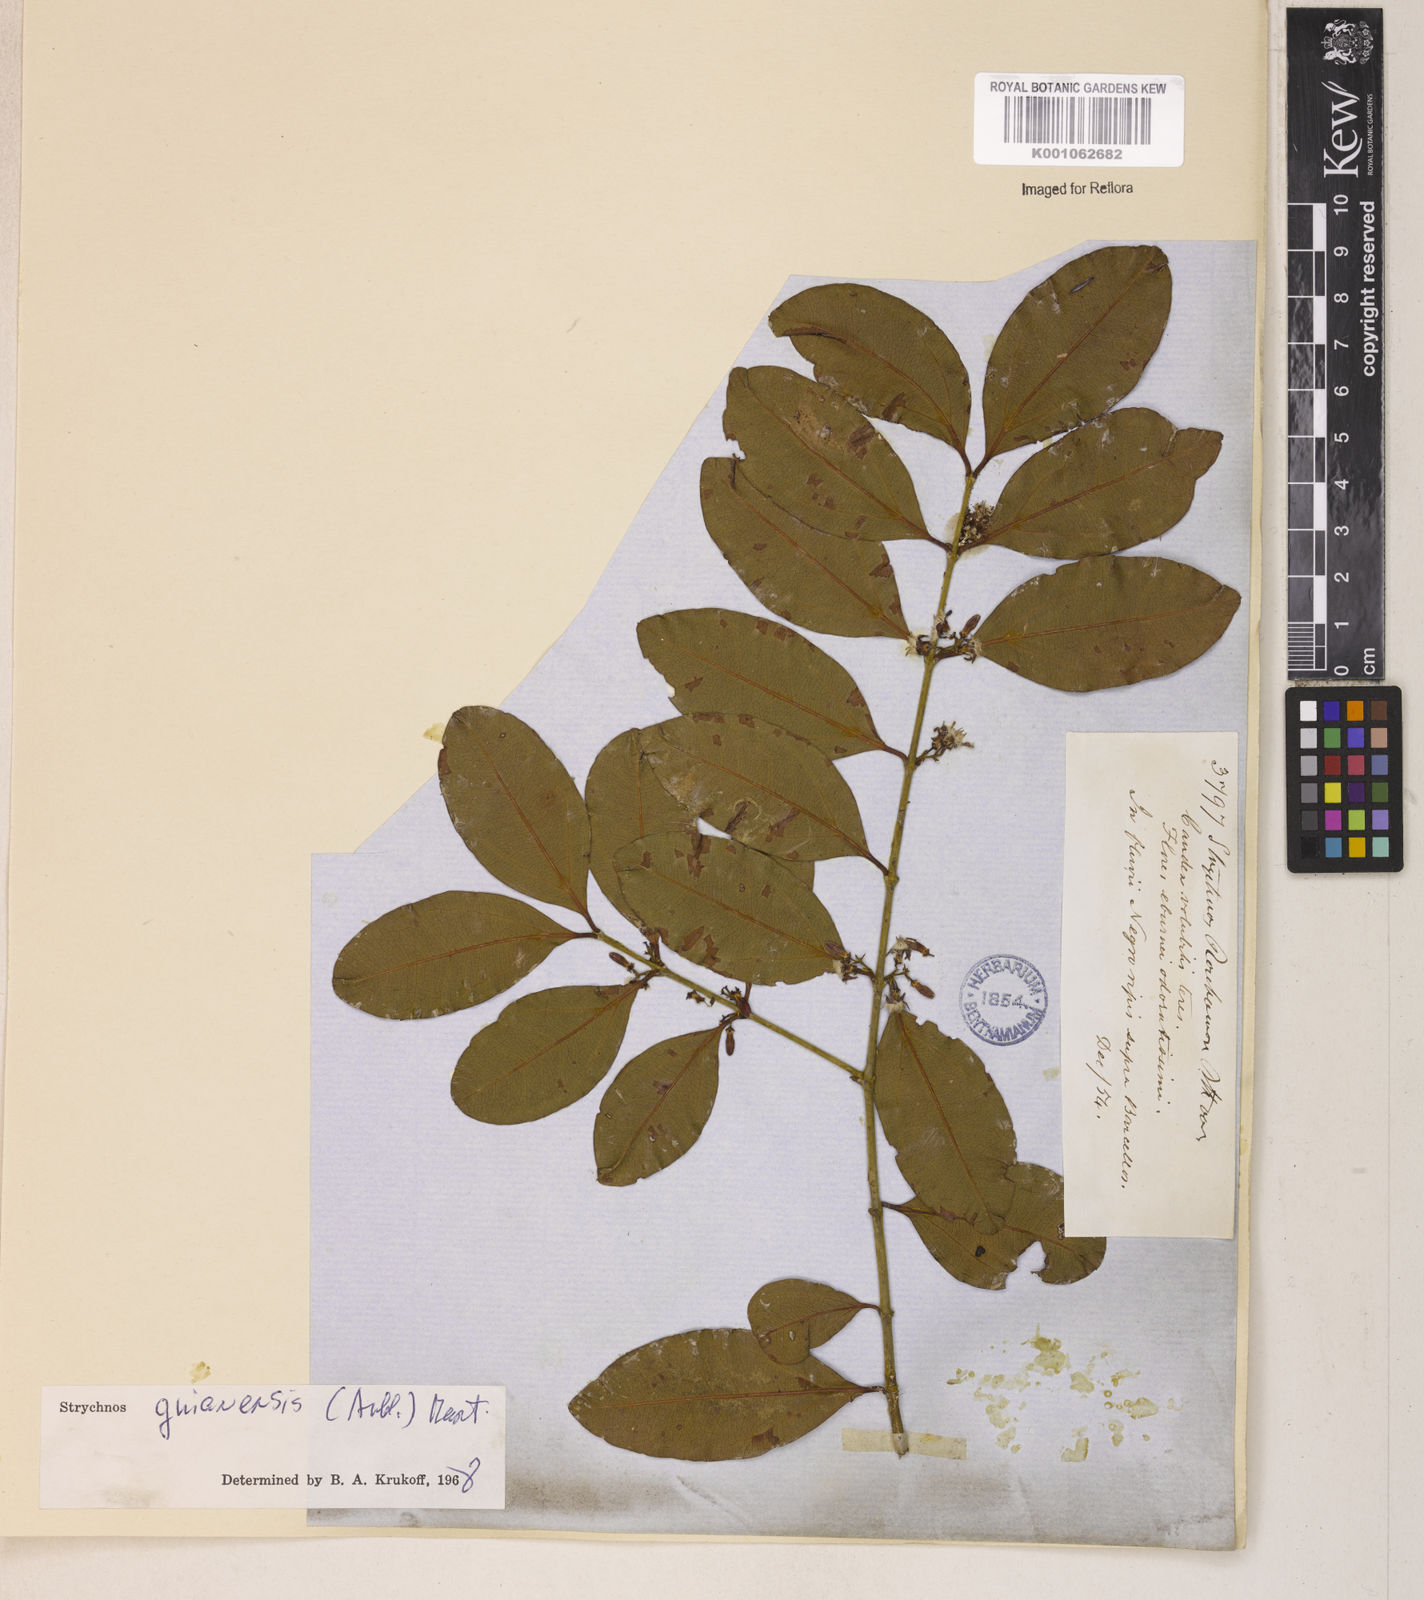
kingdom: Plantae
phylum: Tracheophyta
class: Magnoliopsida
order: Gentianales
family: Loganiaceae
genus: Strychnos
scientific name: Strychnos guianensis
